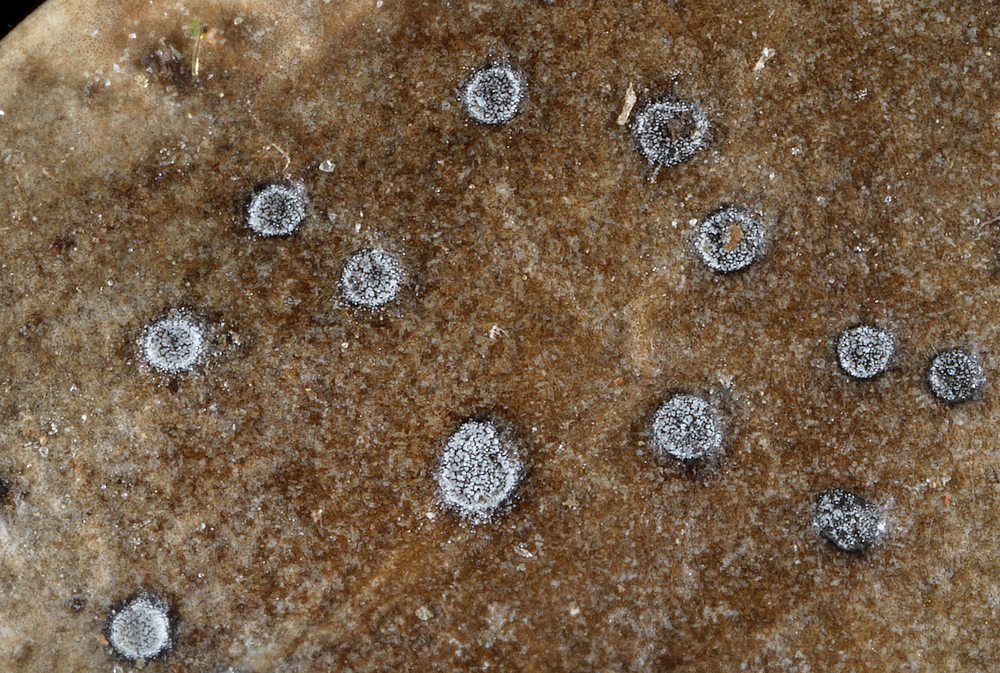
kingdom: Fungi
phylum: Ascomycota
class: Leotiomycetes
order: Helotiales
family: Cenangiaceae
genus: Trochila
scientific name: Trochila ilicina
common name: kristtorn-lågskive
